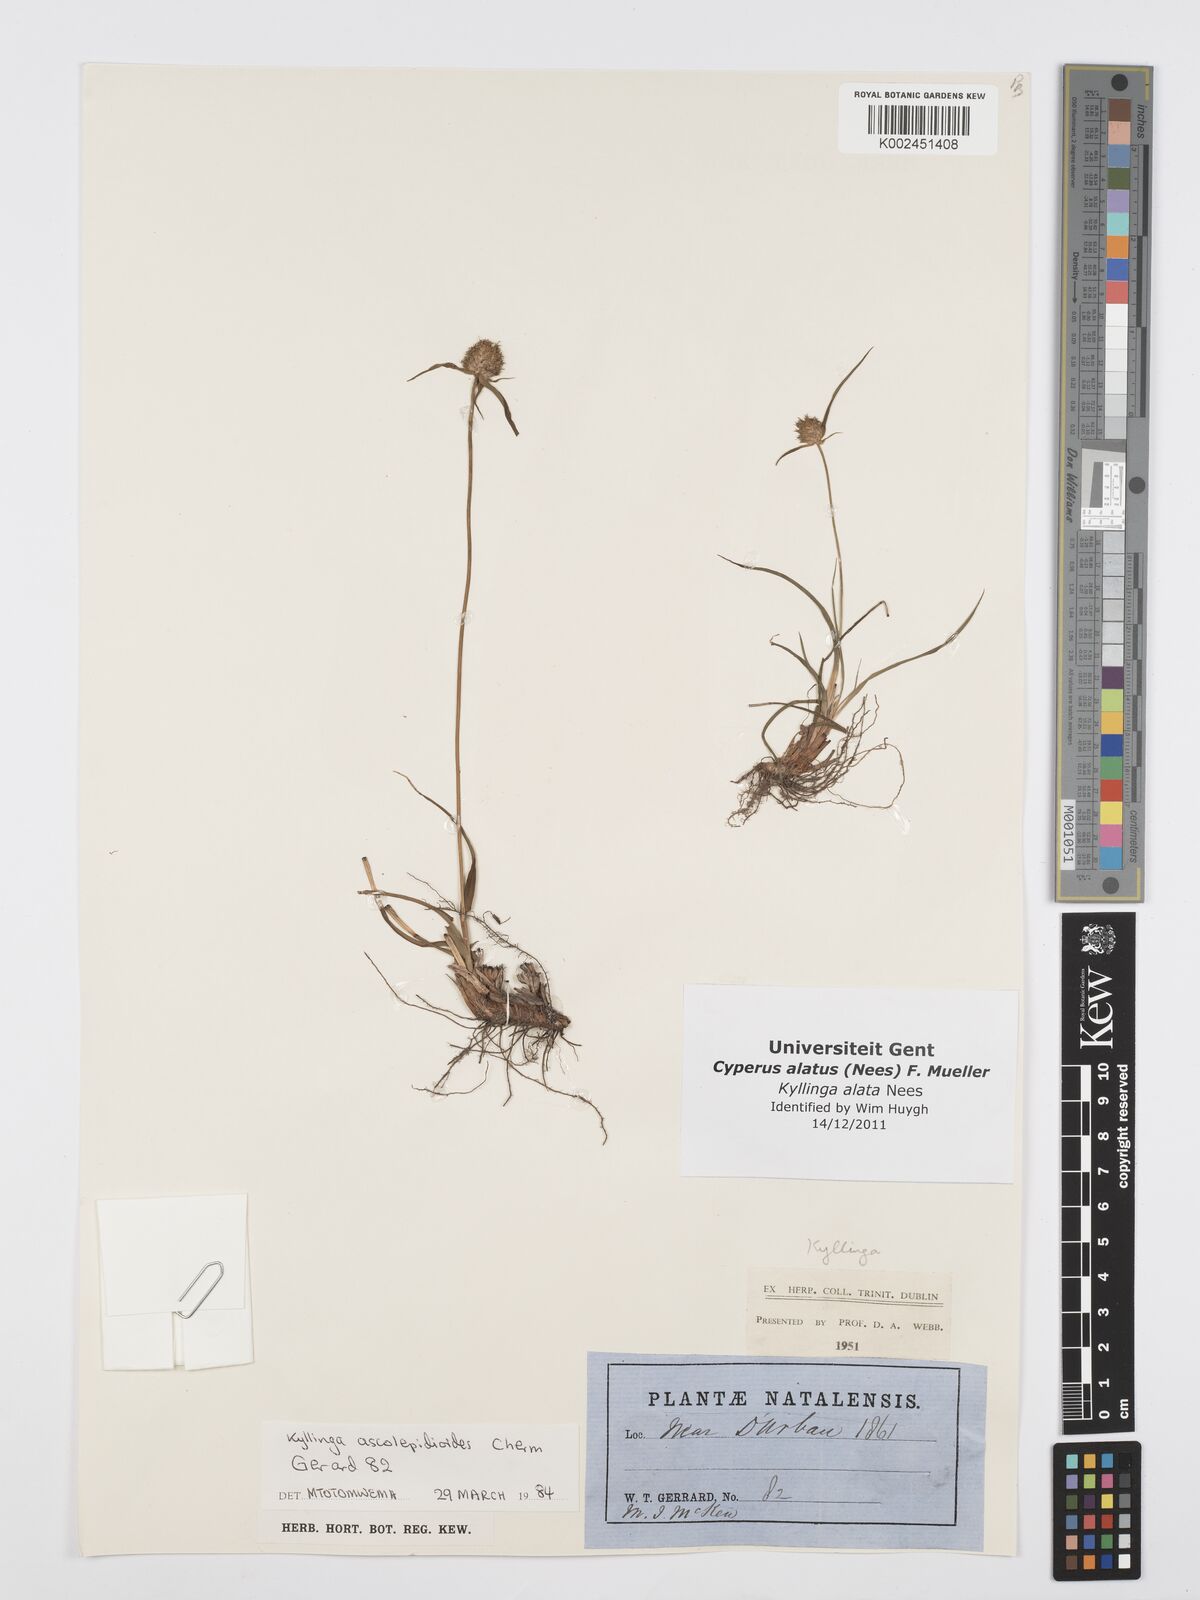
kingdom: Plantae
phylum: Tracheophyta
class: Liliopsida
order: Poales
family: Cyperaceae
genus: Cyperus
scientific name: Cyperus
